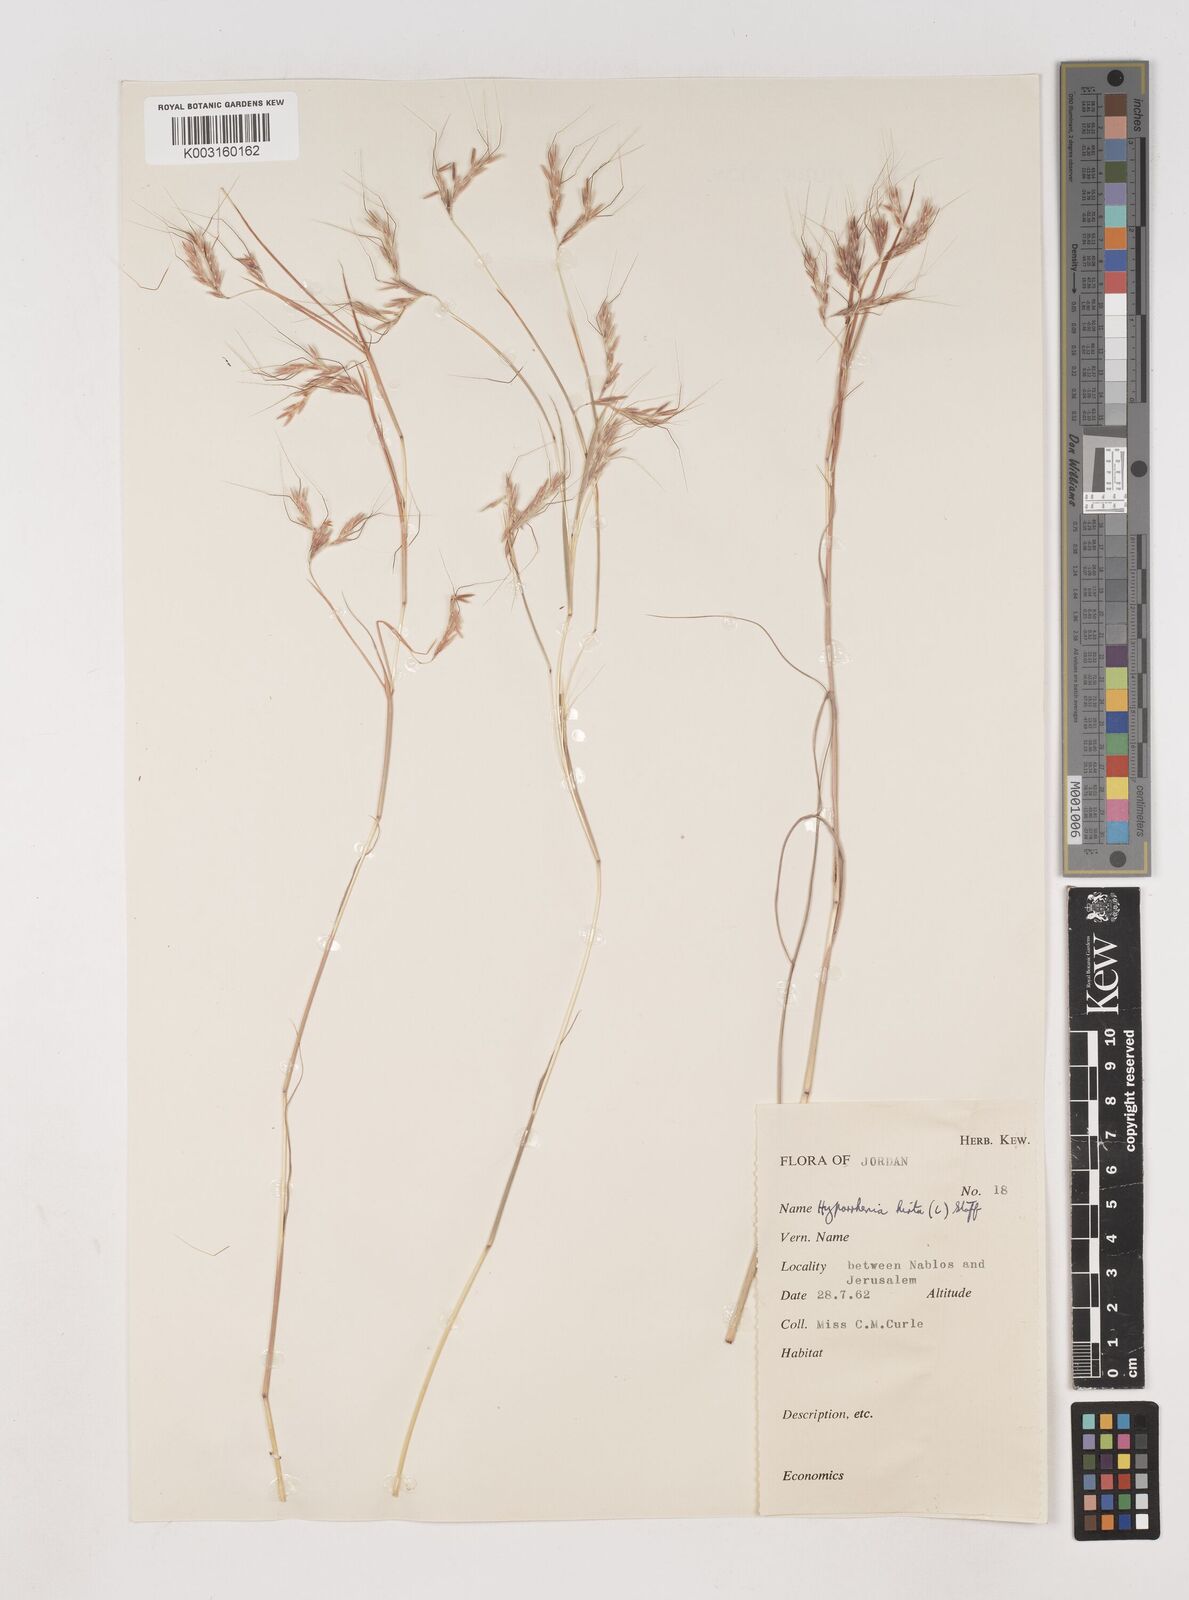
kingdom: Plantae
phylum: Tracheophyta
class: Liliopsida
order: Poales
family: Poaceae
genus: Hyparrhenia
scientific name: Hyparrhenia hirta
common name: Thatching grass
